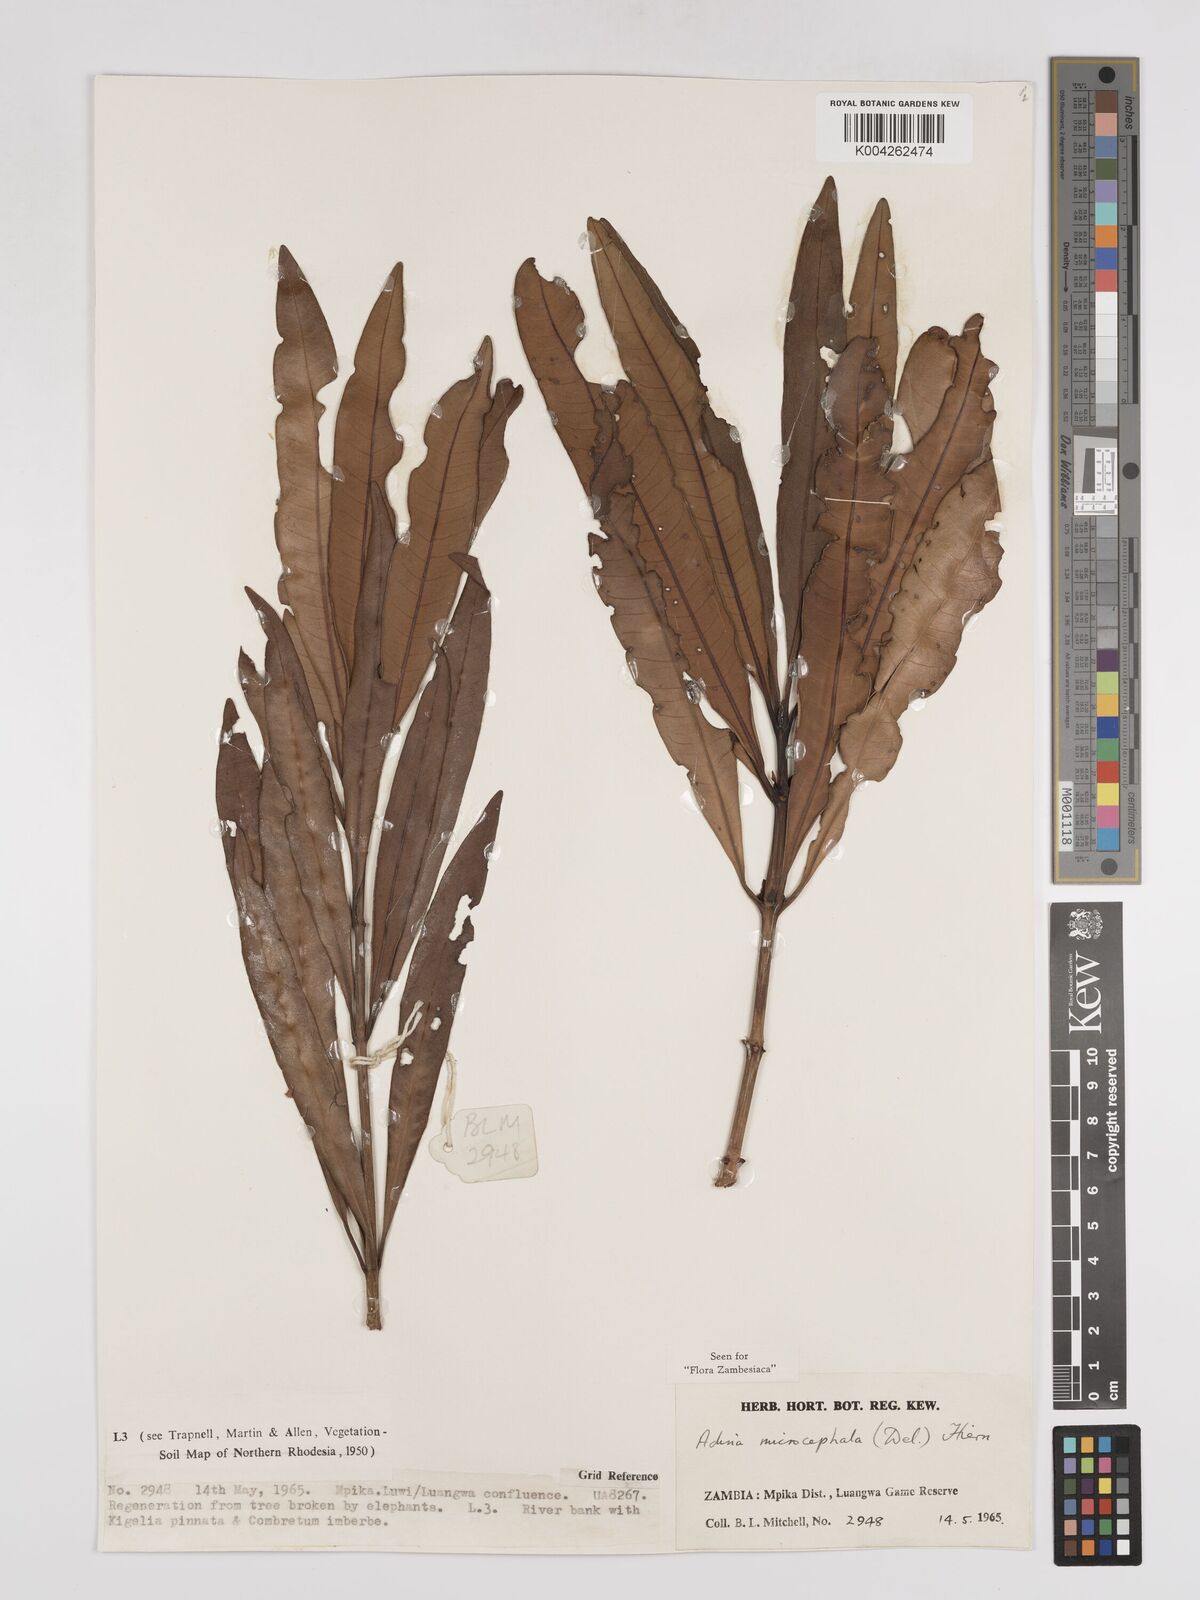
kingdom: Plantae
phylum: Tracheophyta
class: Magnoliopsida
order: Gentianales
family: Rubiaceae
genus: Breonadia
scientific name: Breonadia salicina
